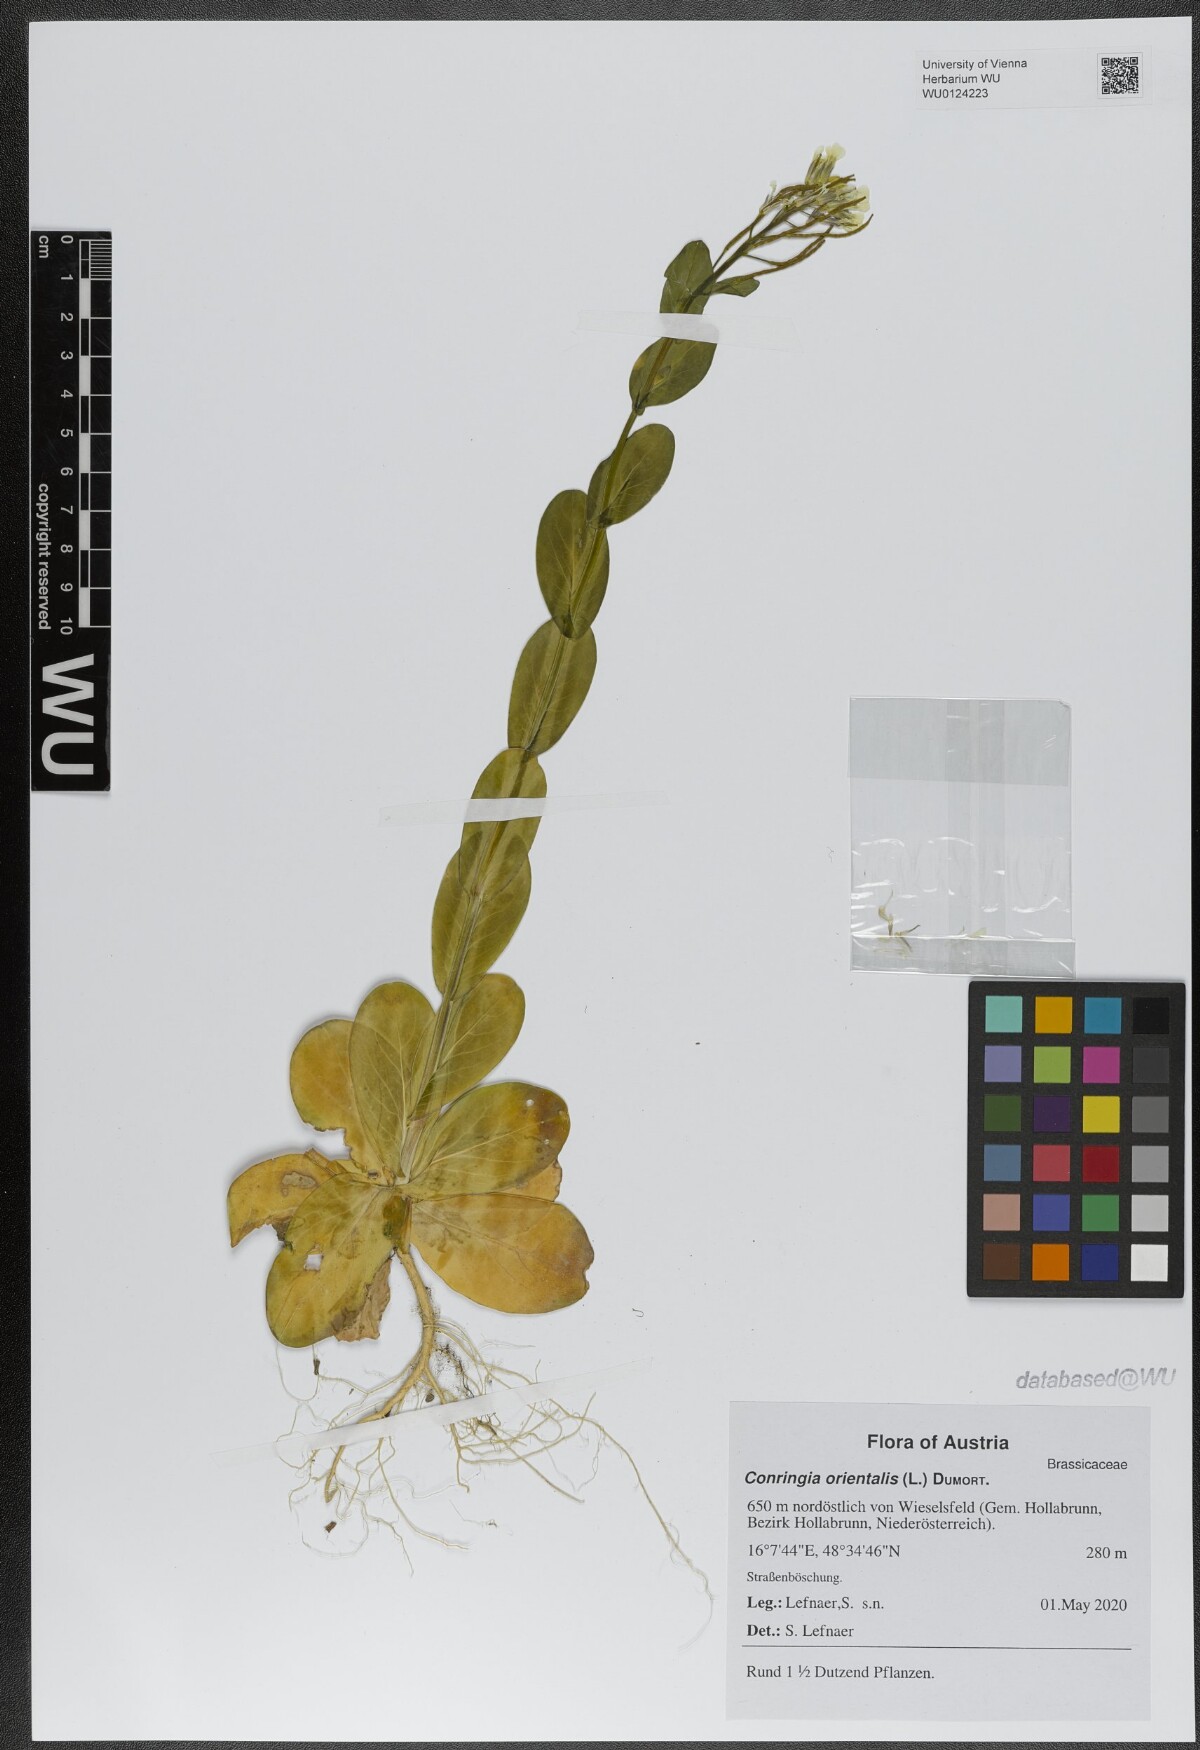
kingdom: Plantae
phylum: Tracheophyta
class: Magnoliopsida
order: Brassicales
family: Brassicaceae
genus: Conringia
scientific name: Conringia orientalis
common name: Hare's ear mustard
